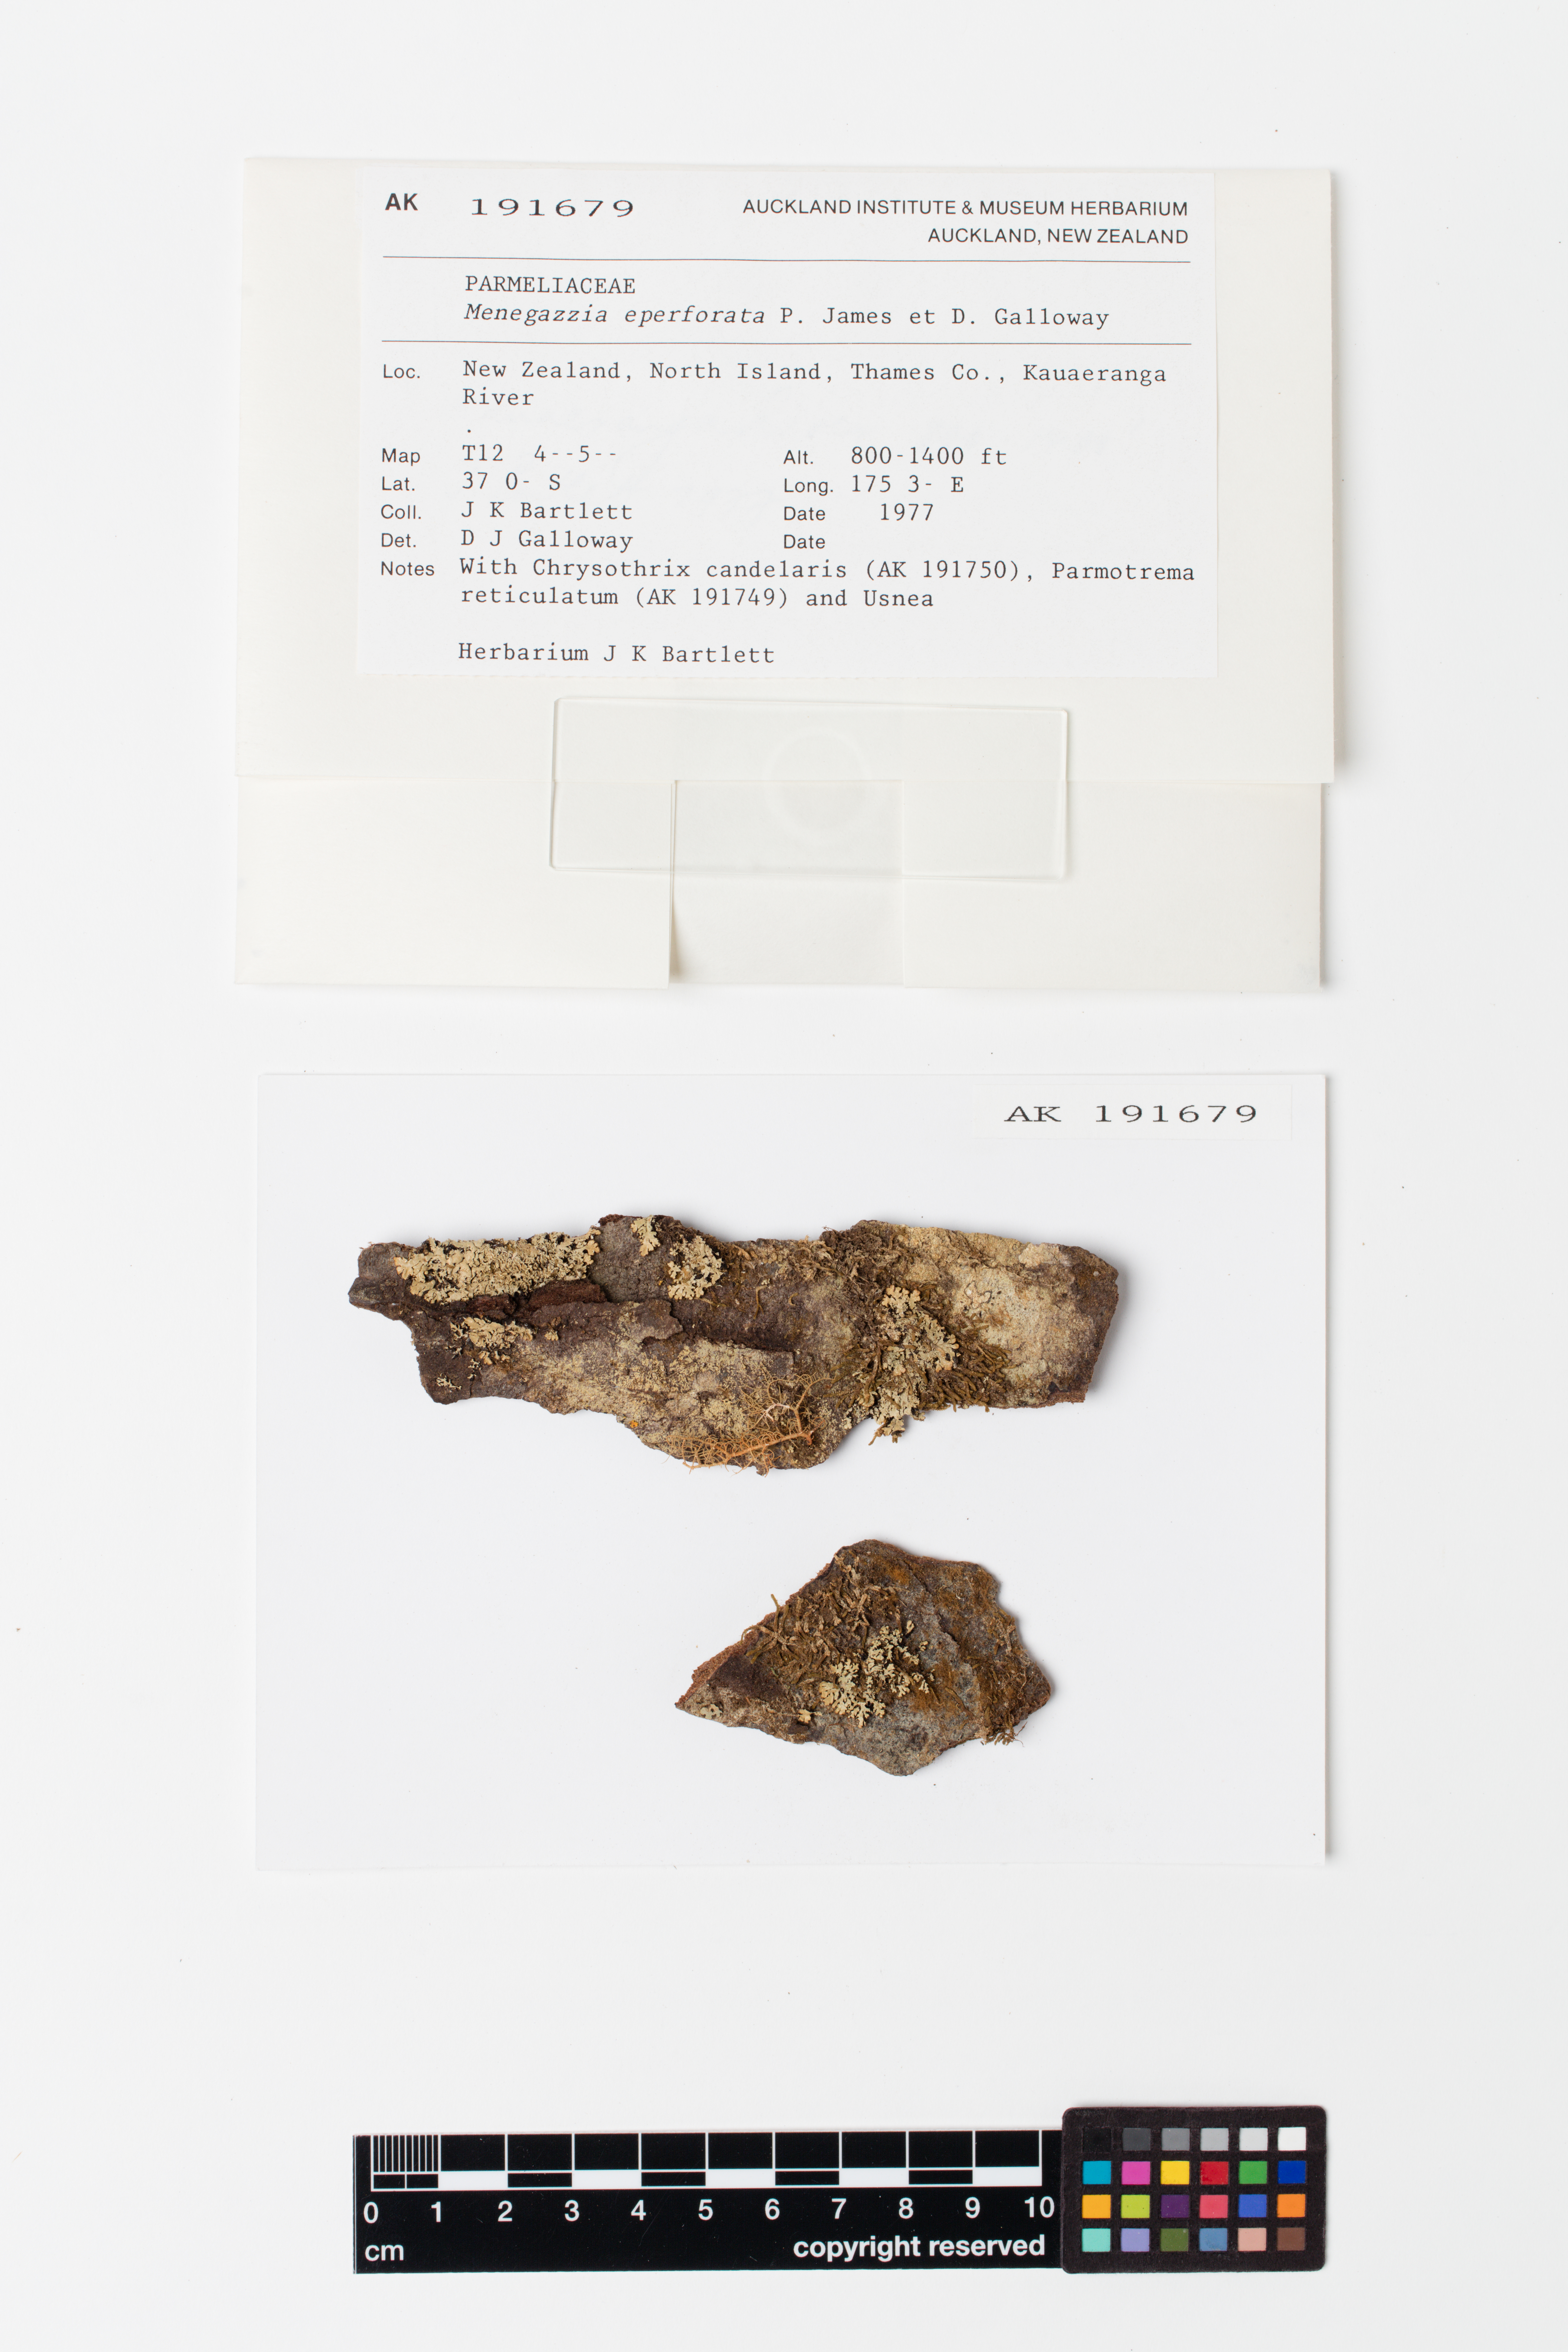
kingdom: Fungi
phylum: Ascomycota
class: Lecanoromycetes
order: Lecanorales
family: Parmeliaceae
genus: Menegazzia
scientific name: Menegazzia eperforata
